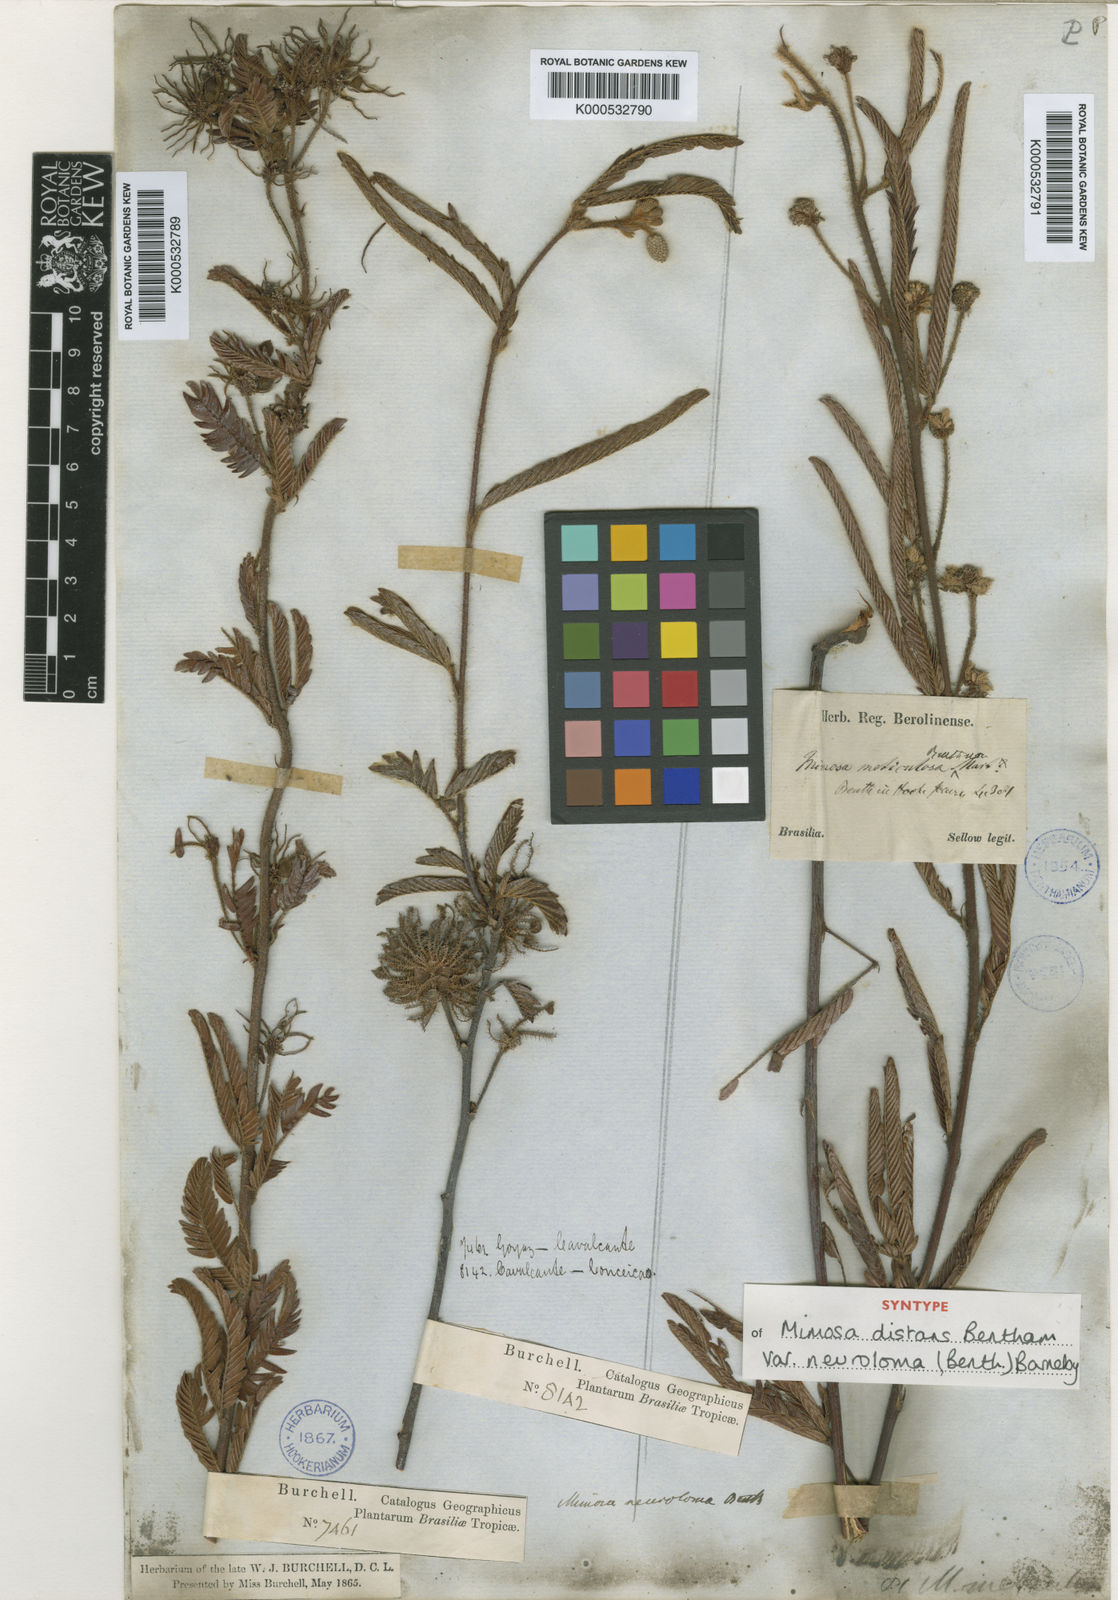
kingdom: Plantae
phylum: Tracheophyta
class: Magnoliopsida
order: Fabales
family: Fabaceae
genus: Mimosa
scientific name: Mimosa distans
